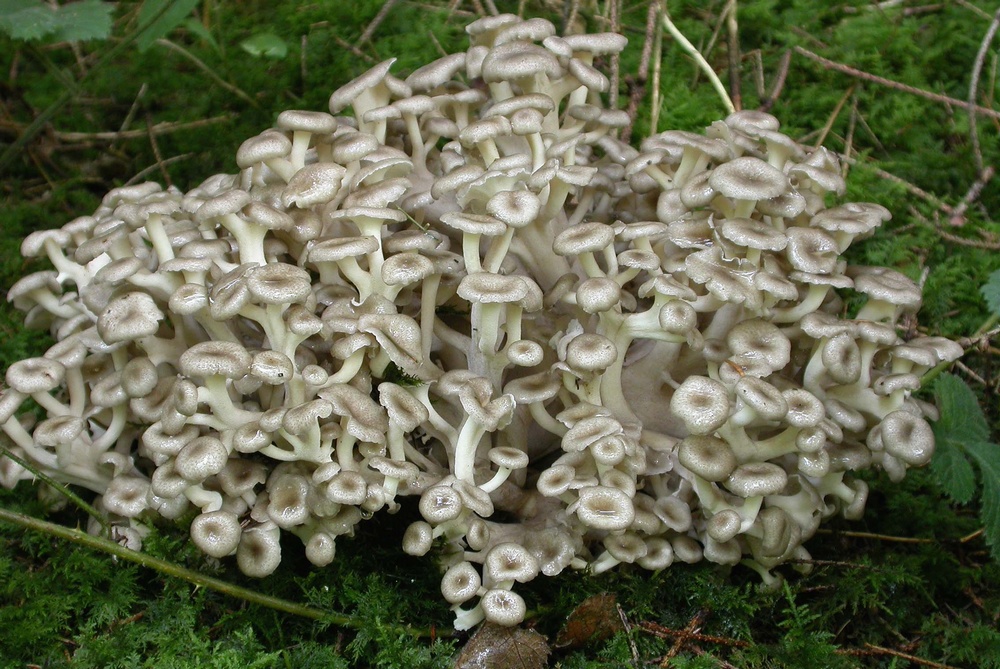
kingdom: Fungi
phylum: Basidiomycota
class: Agaricomycetes
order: Polyporales
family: Polyporaceae
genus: Polyporus
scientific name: Polyporus umbellatus
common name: skærmformet stilkporesvamp
